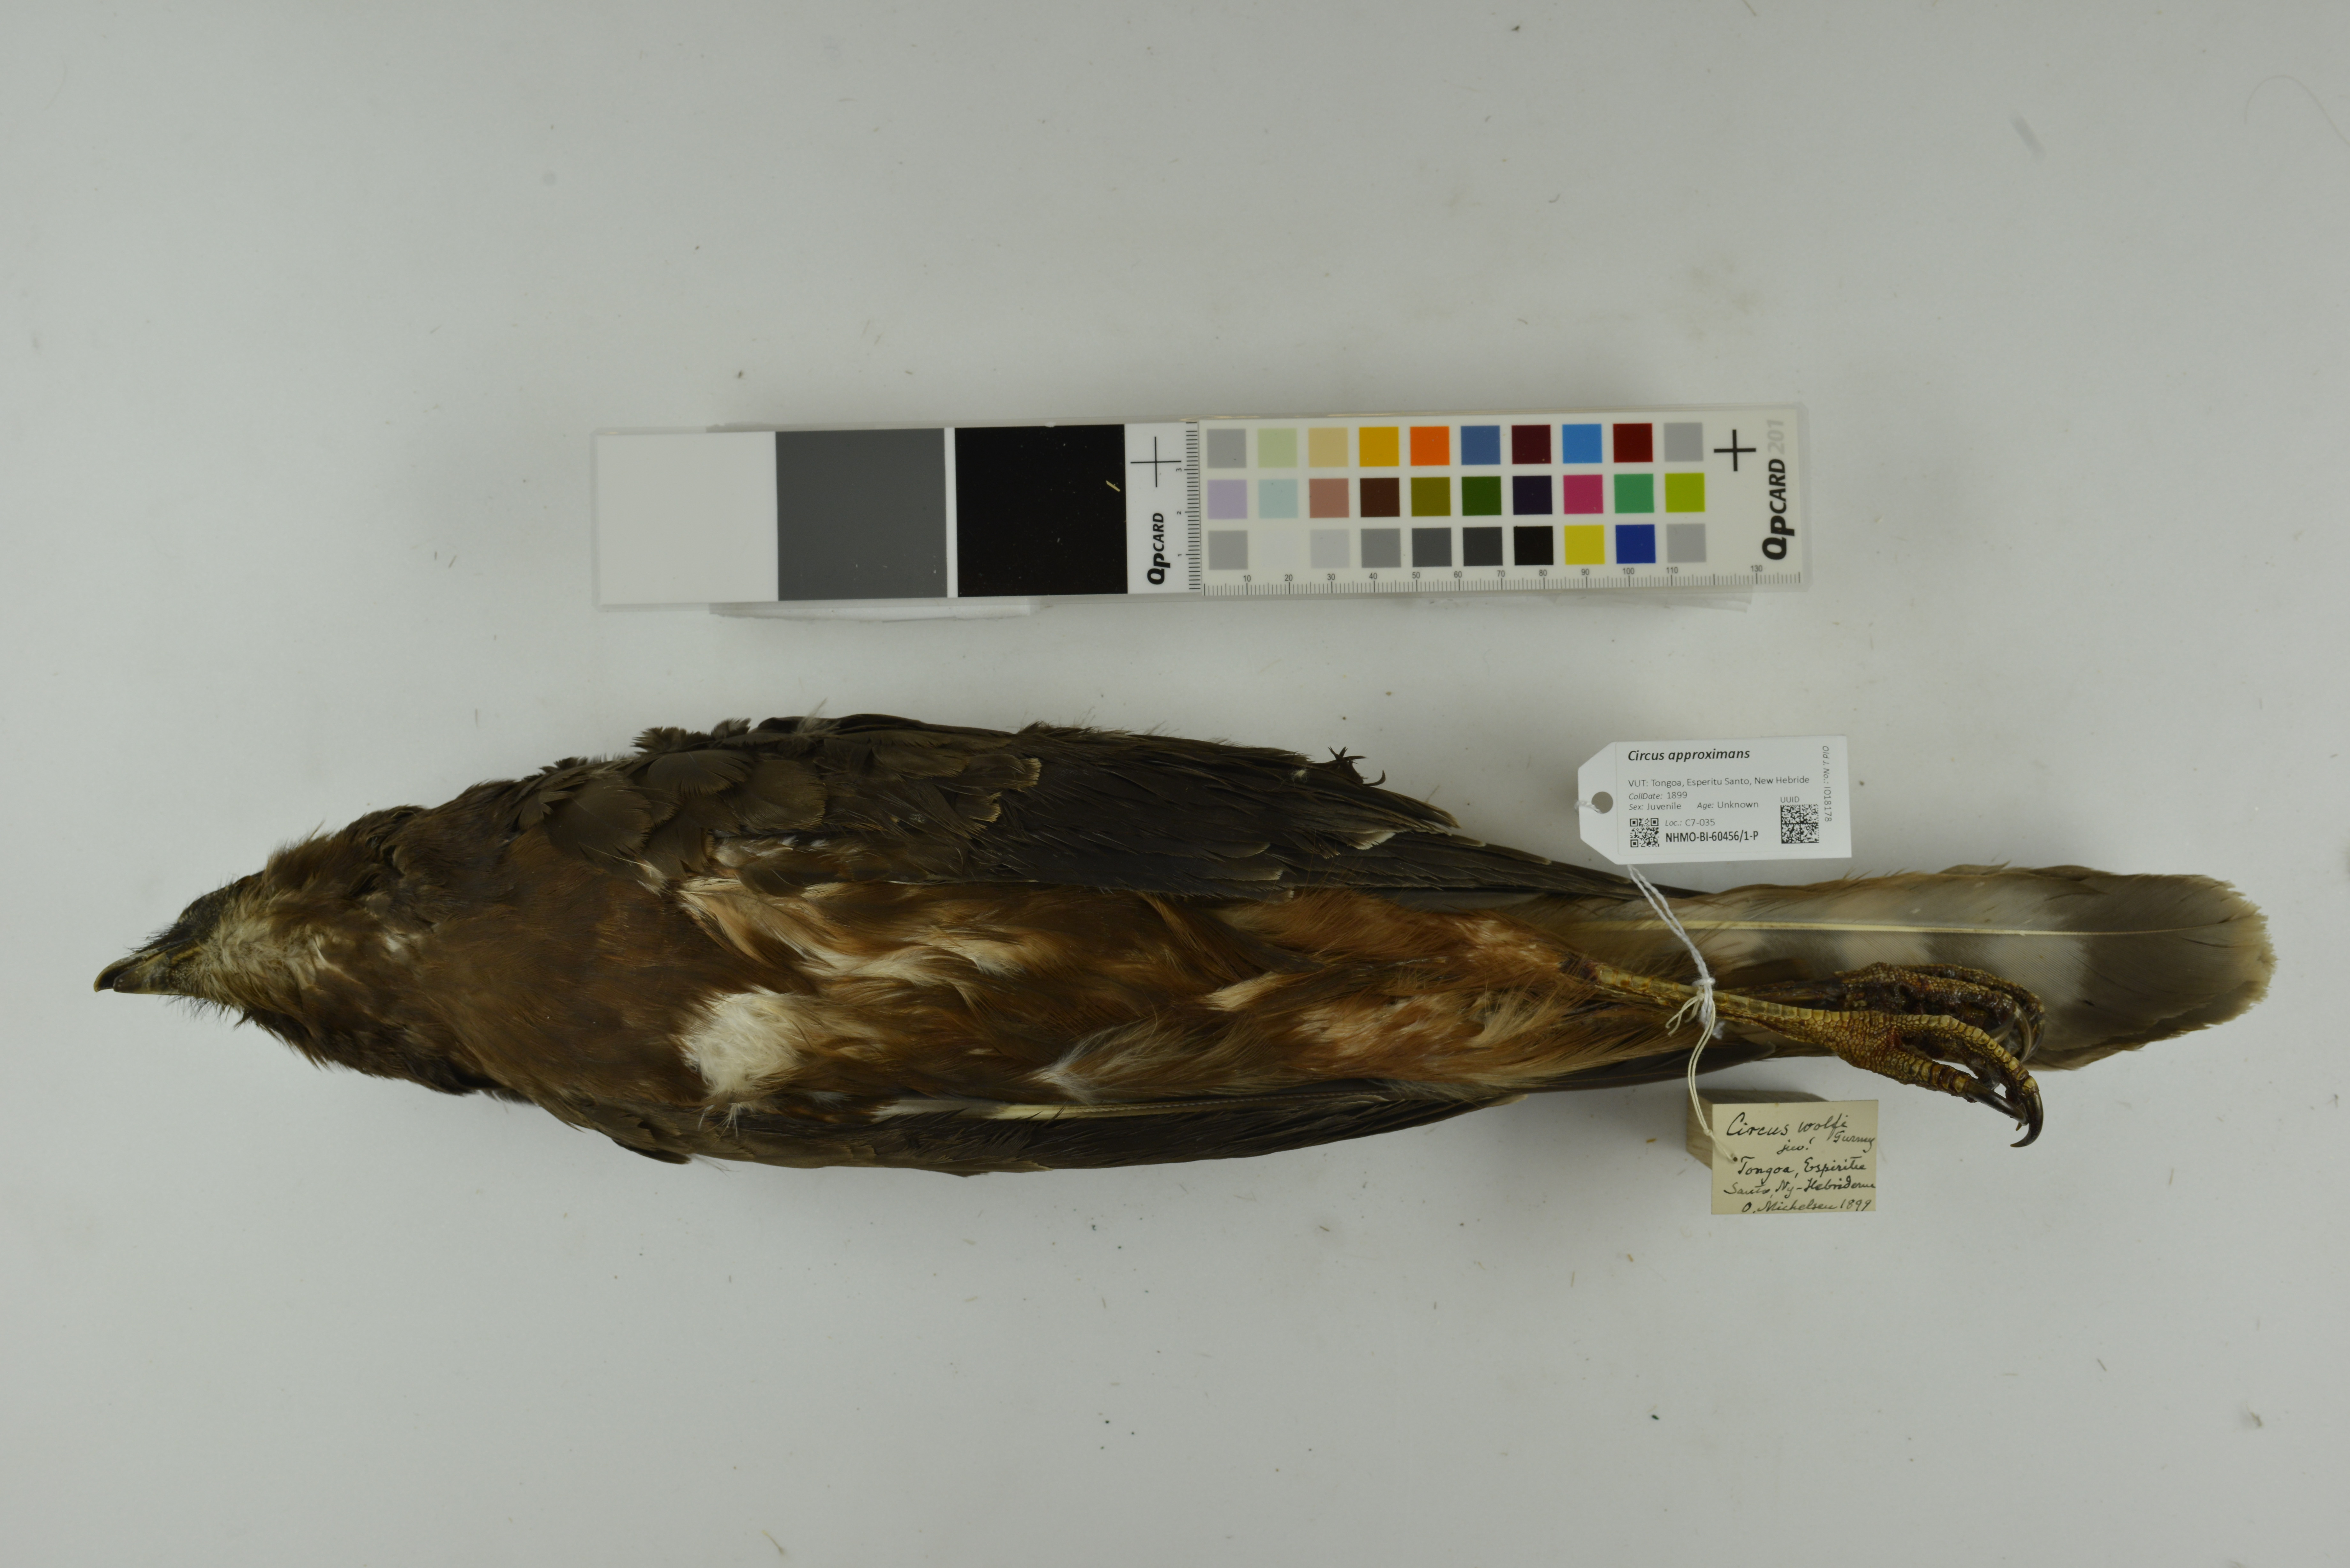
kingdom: Animalia
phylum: Chordata
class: Aves
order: Accipitriformes
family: Accipitridae
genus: Circus
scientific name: Circus approximans
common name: Swamp harrier
